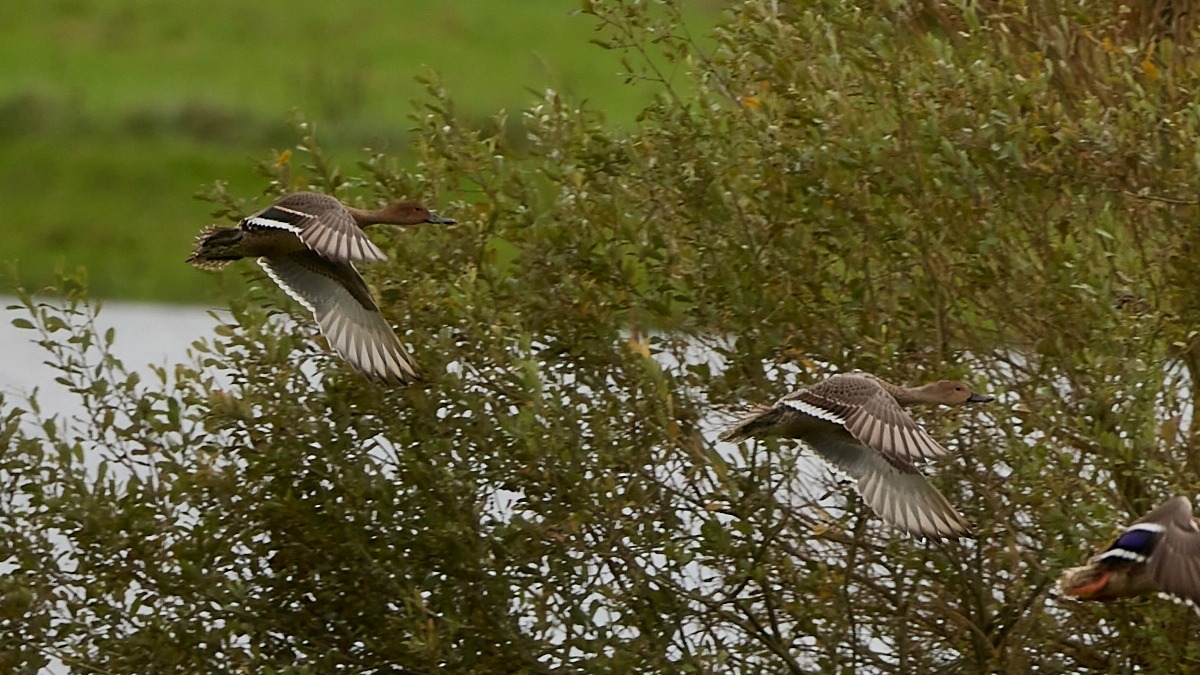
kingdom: Animalia
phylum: Chordata
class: Aves
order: Anseriformes
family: Anatidae
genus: Anas
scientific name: Anas acuta
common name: Spidsand
